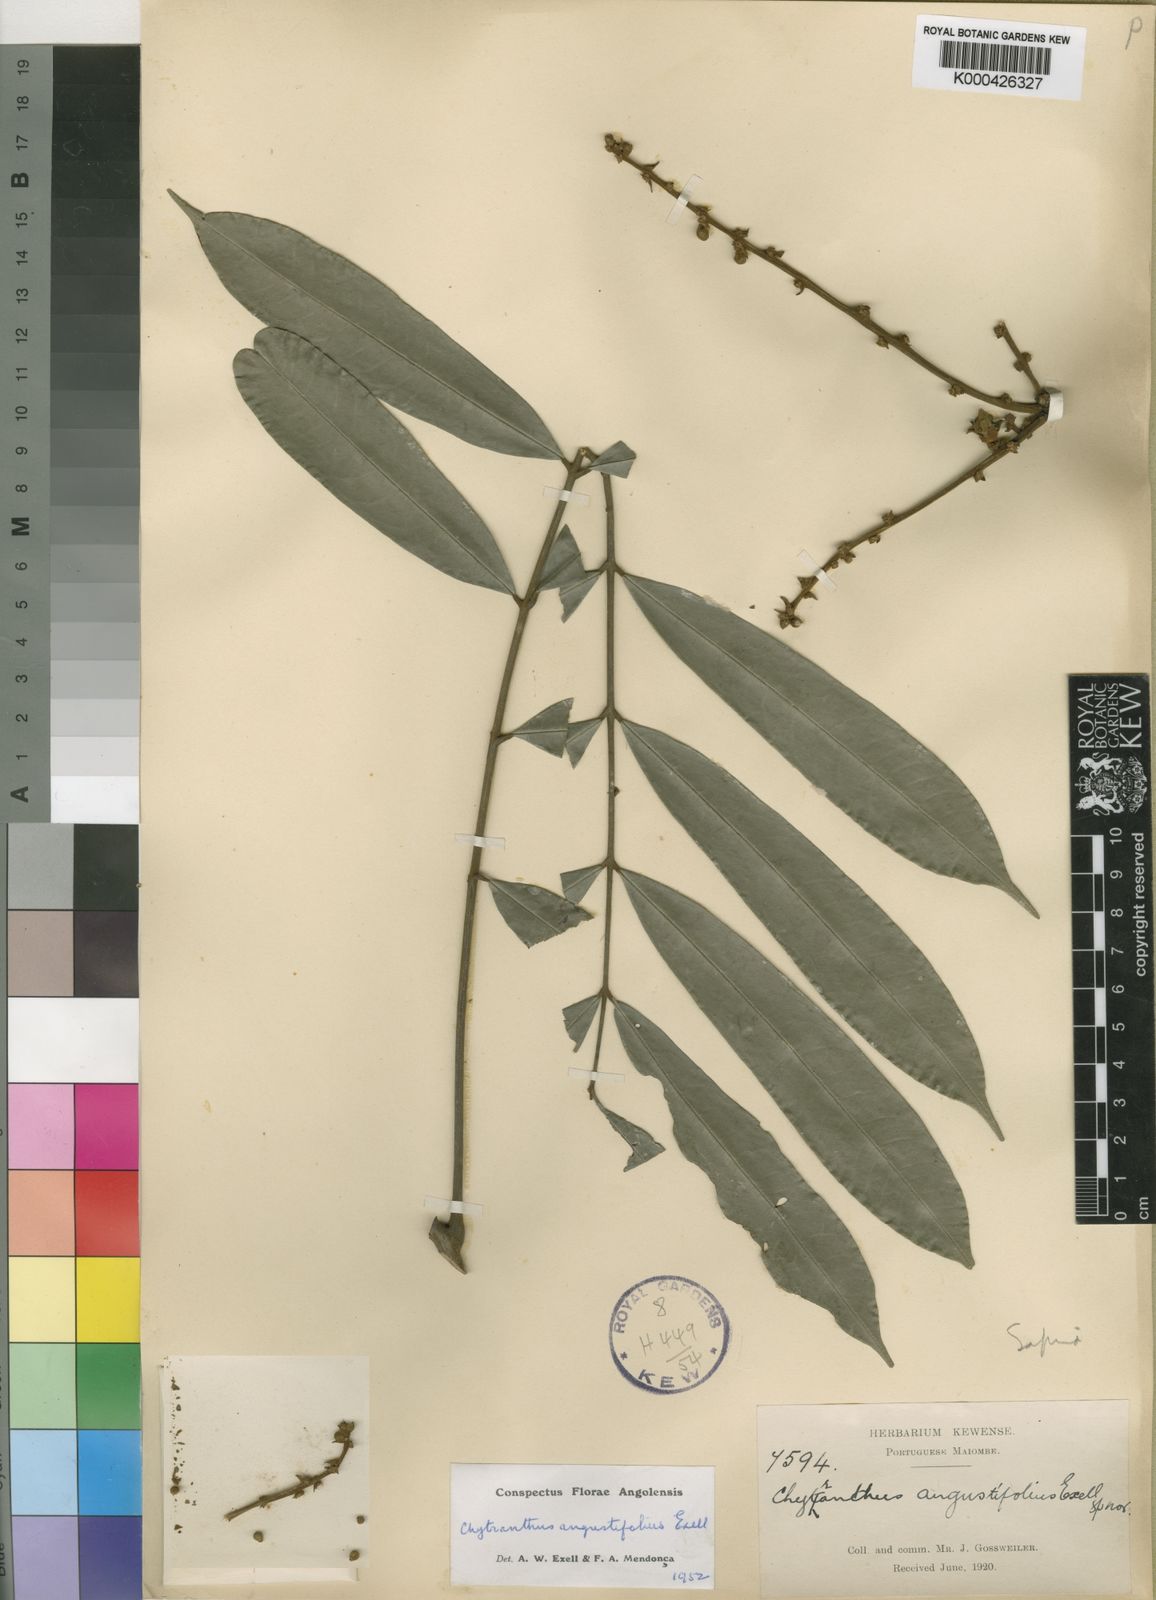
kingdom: Plantae
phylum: Tracheophyta
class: Magnoliopsida
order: Sapindales
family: Sapindaceae
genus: Chytranthus
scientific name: Chytranthus angustifolius
